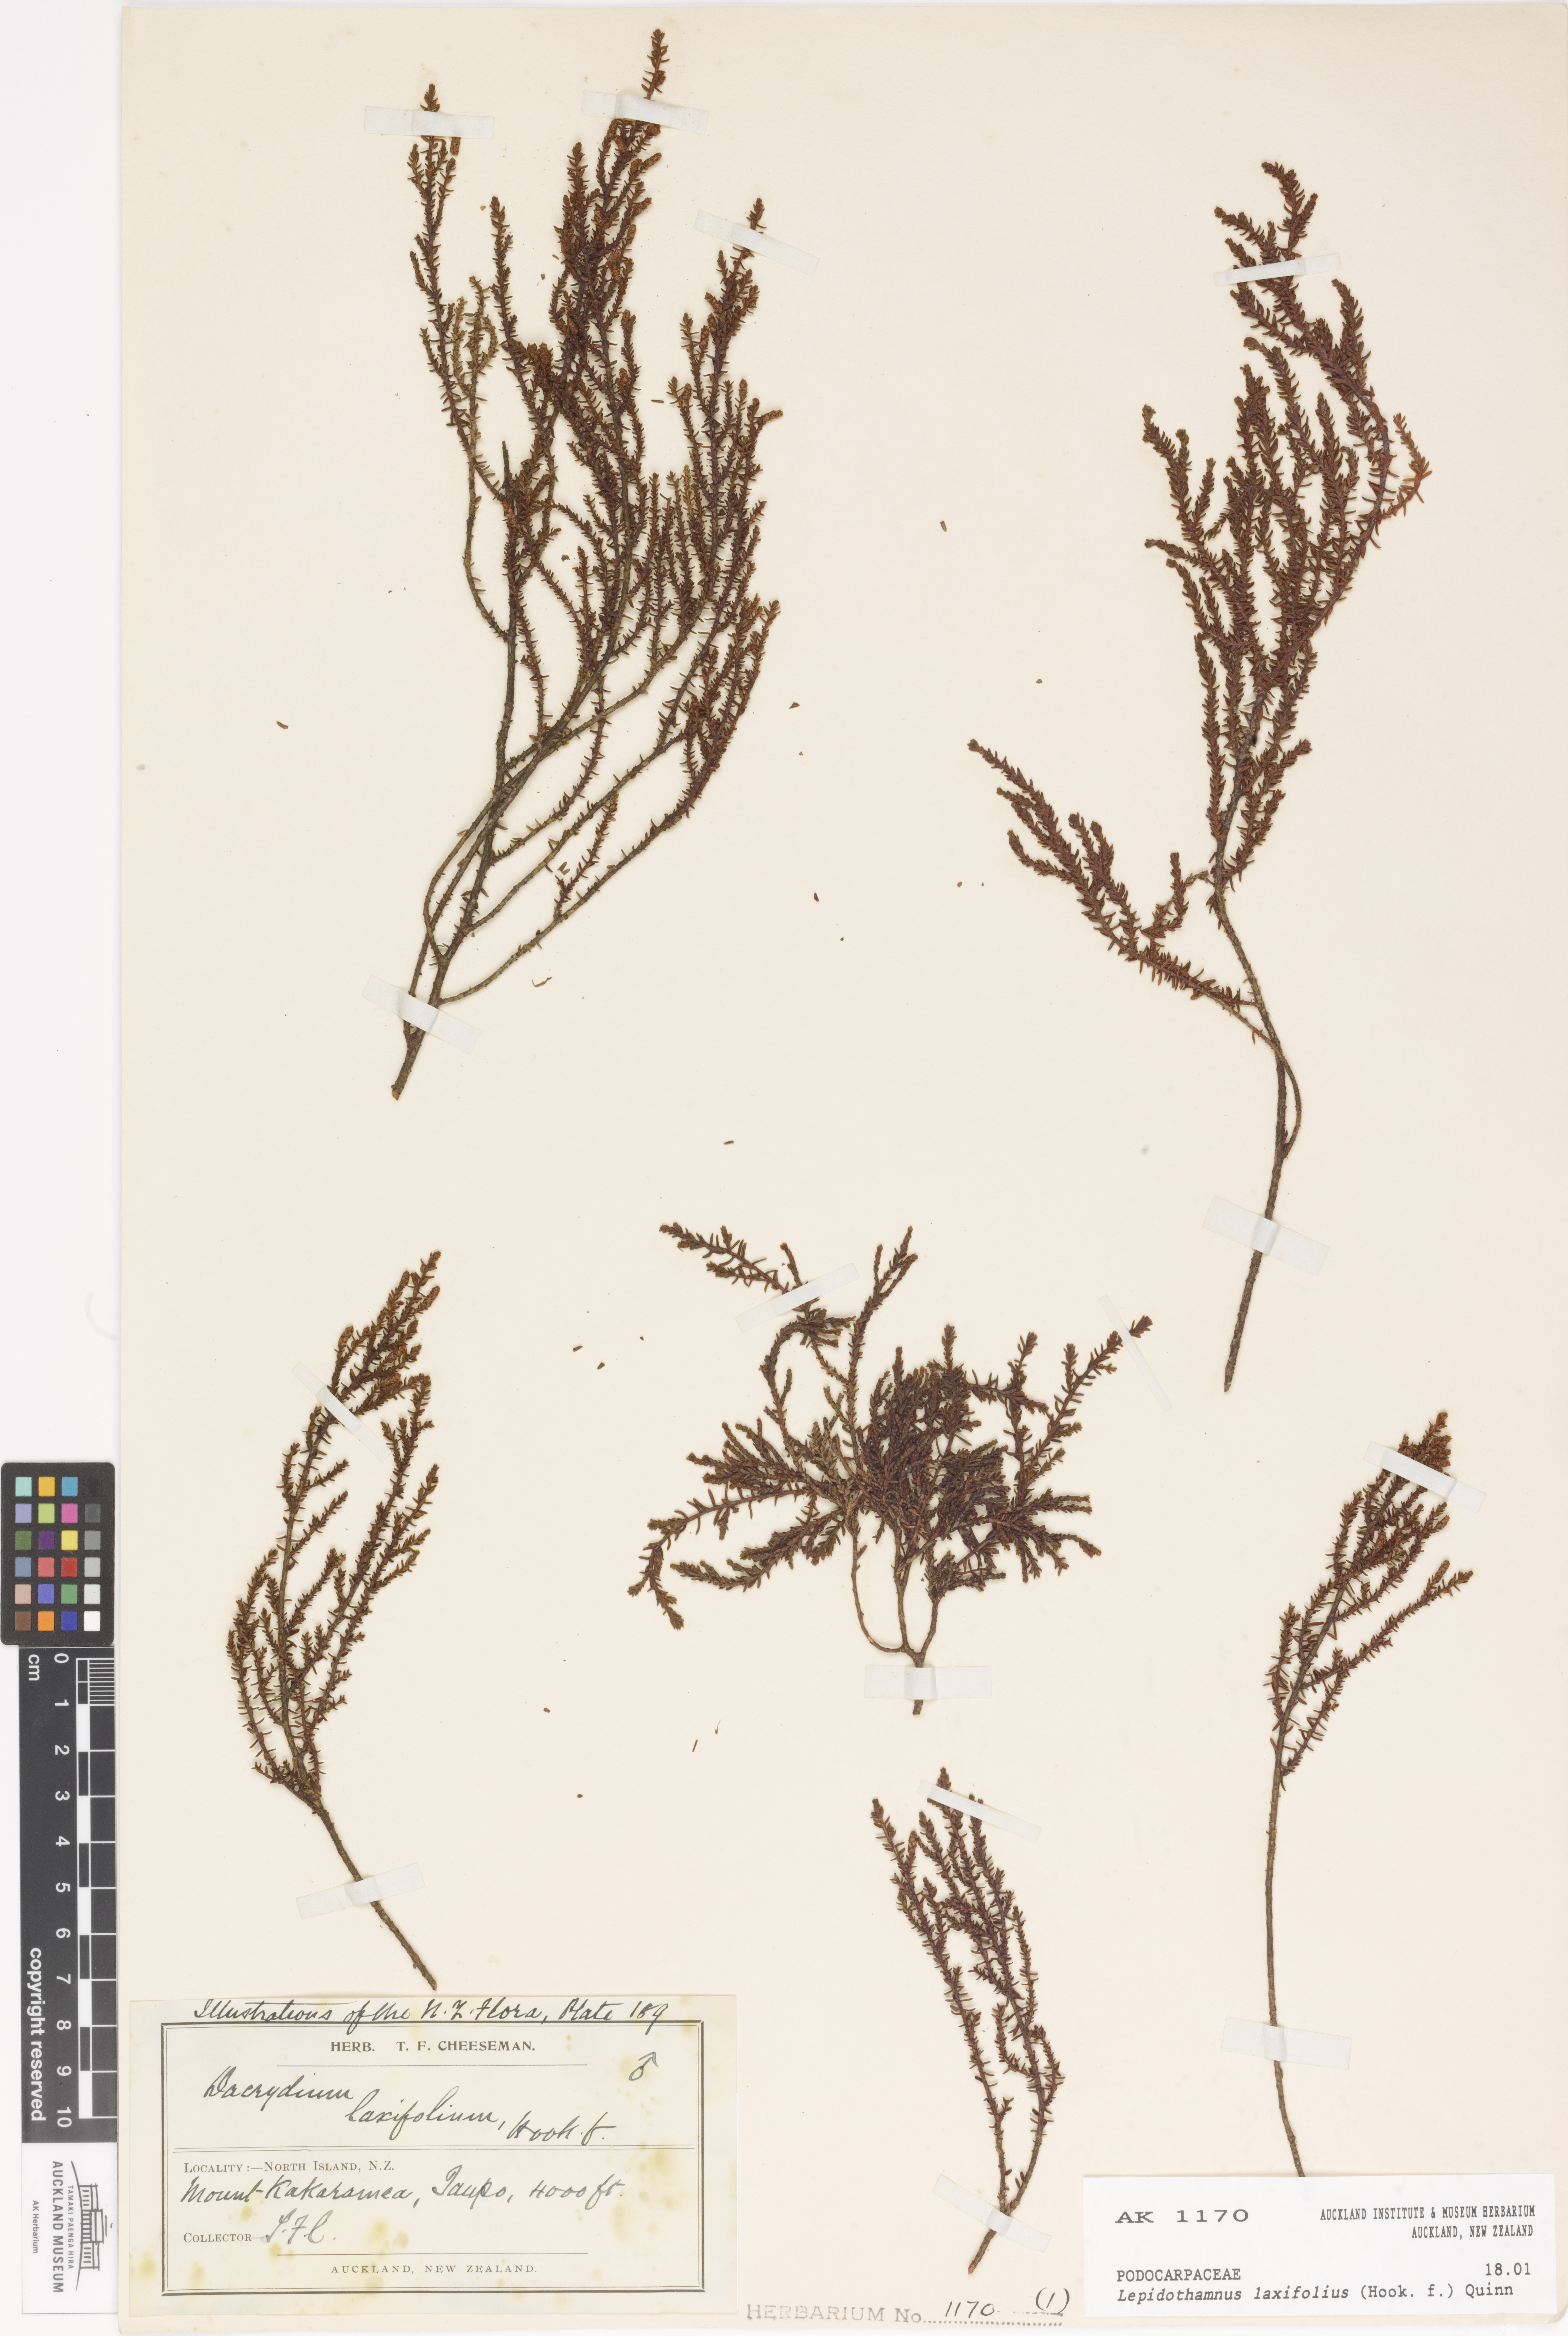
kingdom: Plantae
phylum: Tracheophyta
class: Pinopsida
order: Pinales
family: Podocarpaceae
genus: Lepidothamnus
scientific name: Lepidothamnus laxifolius
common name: Pygmy pine
